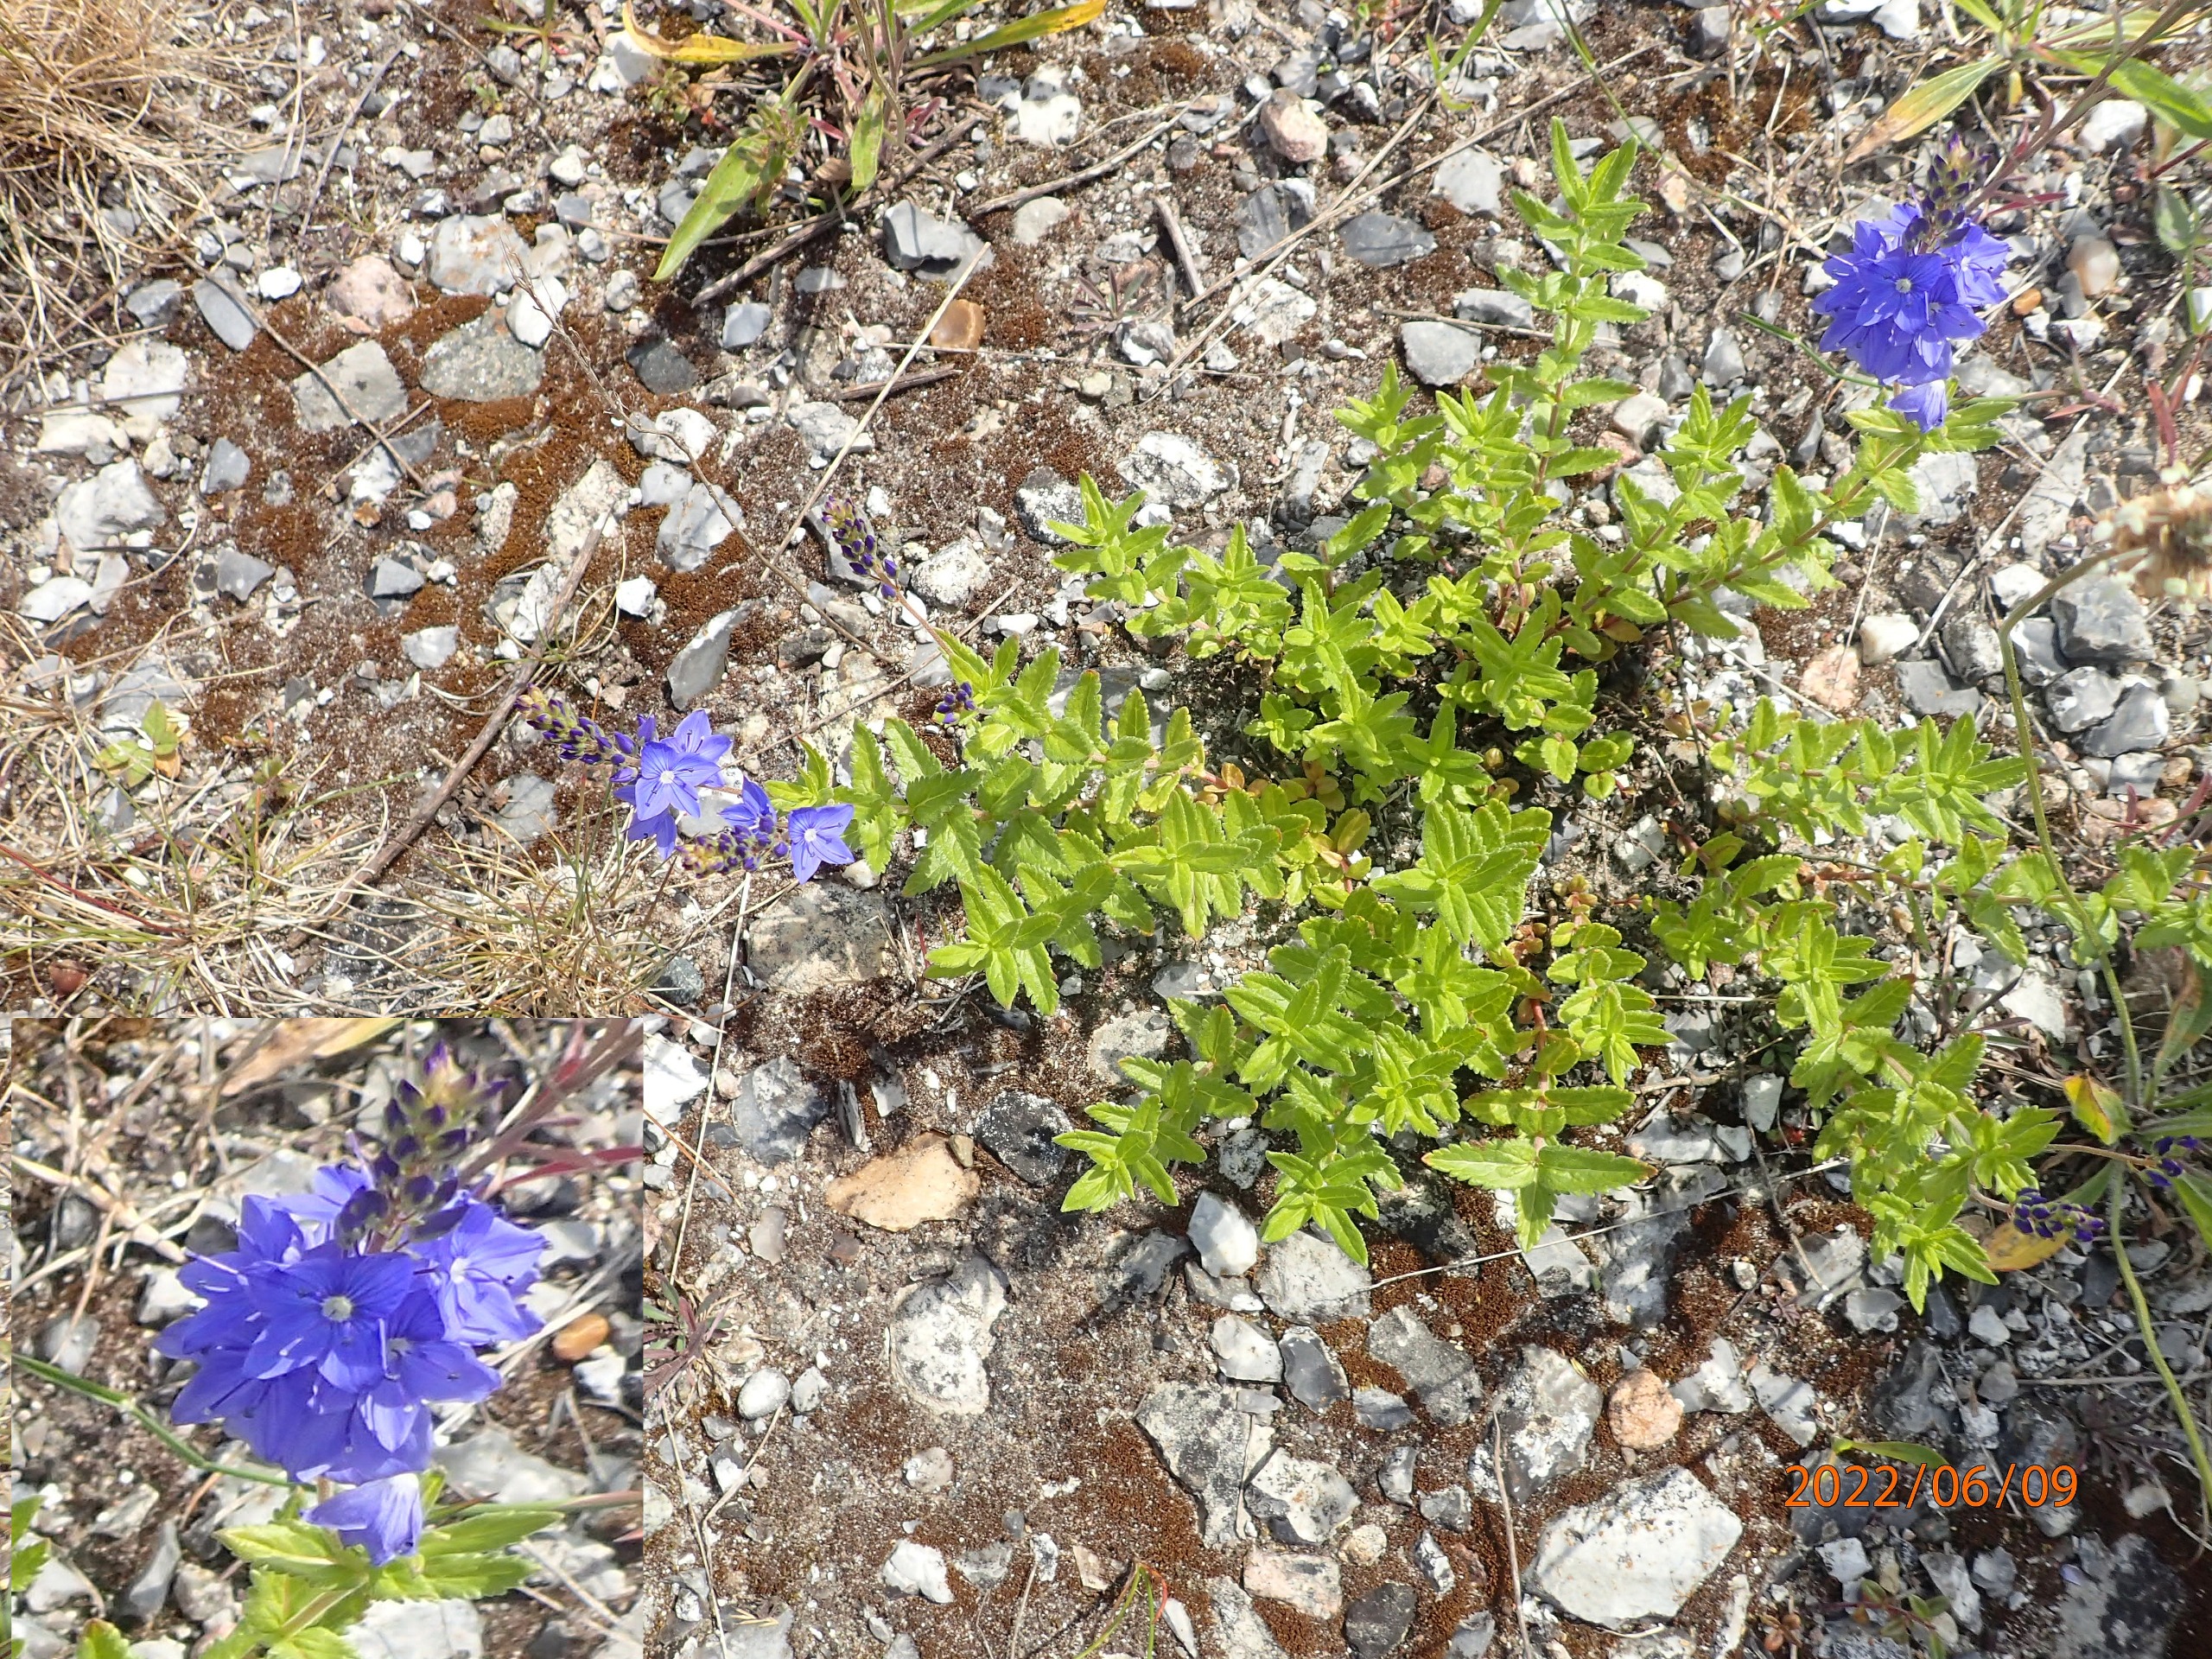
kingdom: Plantae
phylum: Tracheophyta
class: Magnoliopsida
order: Lamiales
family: Plantaginaceae
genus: Veronica
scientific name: Veronica teucrium
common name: Bredbladet ærenpris
